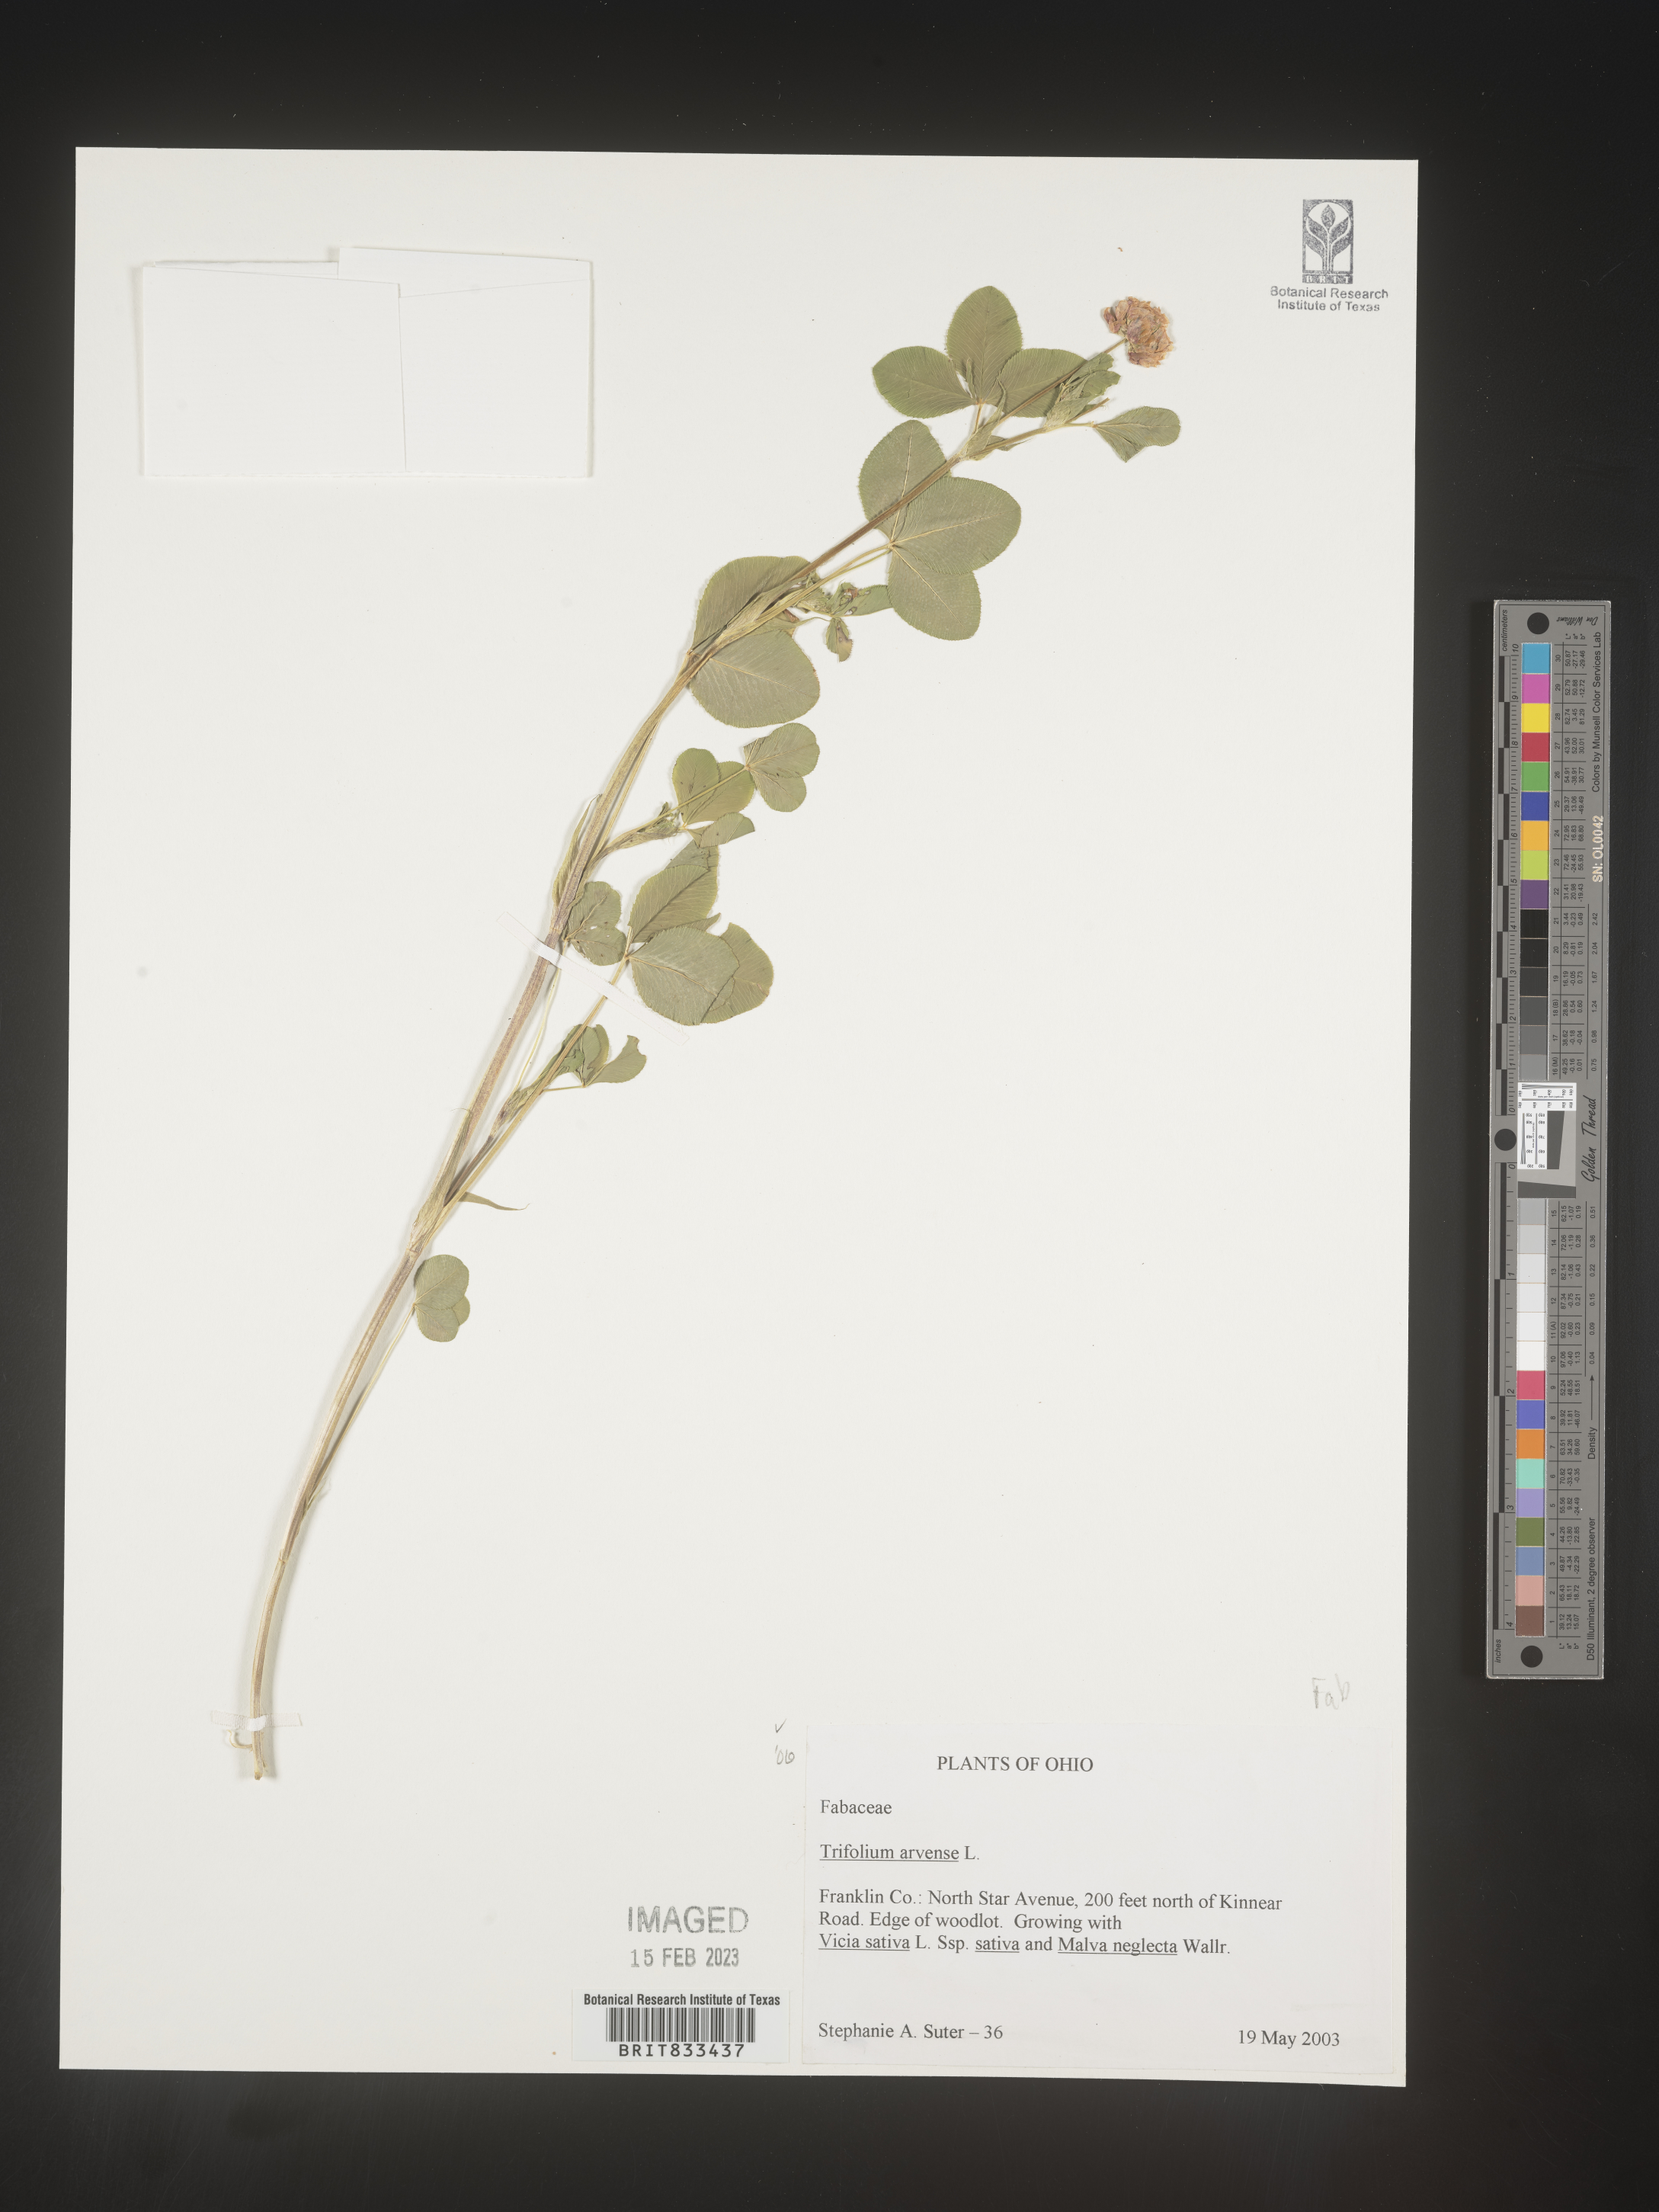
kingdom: Plantae
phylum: Tracheophyta
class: Magnoliopsida
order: Fabales
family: Fabaceae
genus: Trifolium
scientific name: Trifolium arvense
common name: Hare's-foot clover
